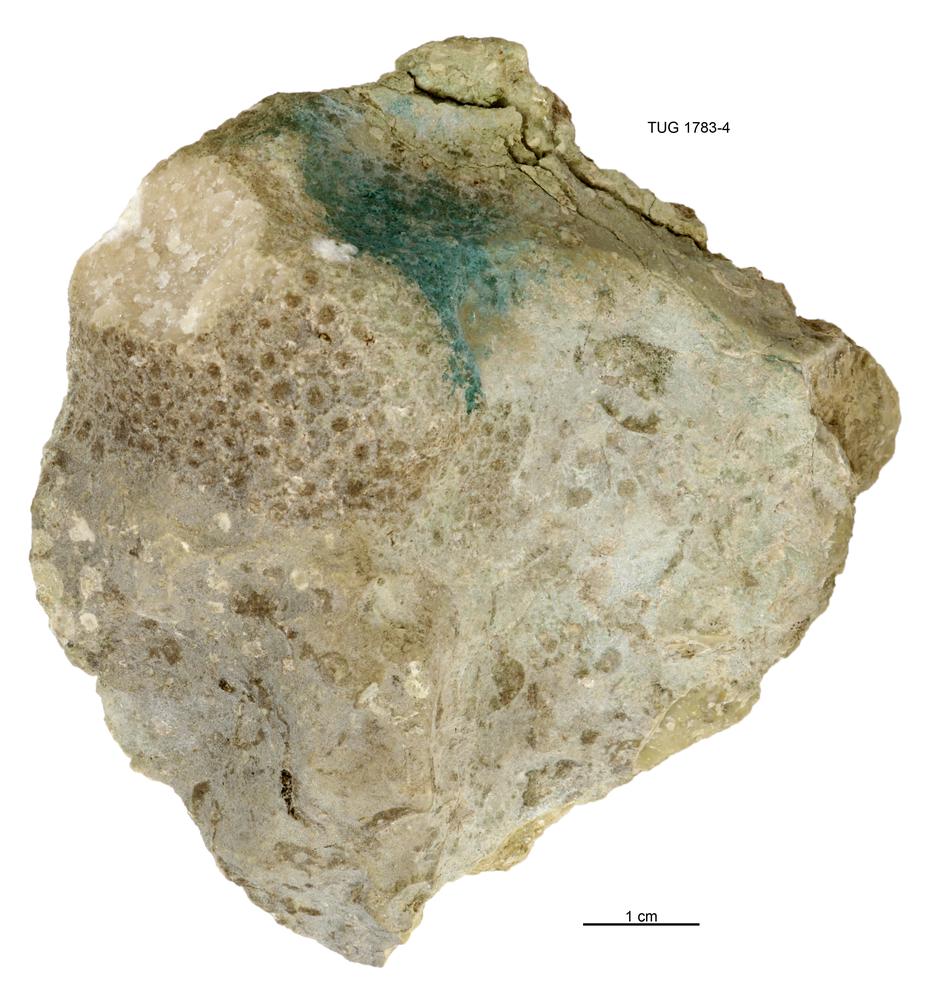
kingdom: Animalia
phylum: Cnidaria
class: Anthozoa
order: Heliolitina
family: Heliolitidae
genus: Heliolites
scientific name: Heliolites
